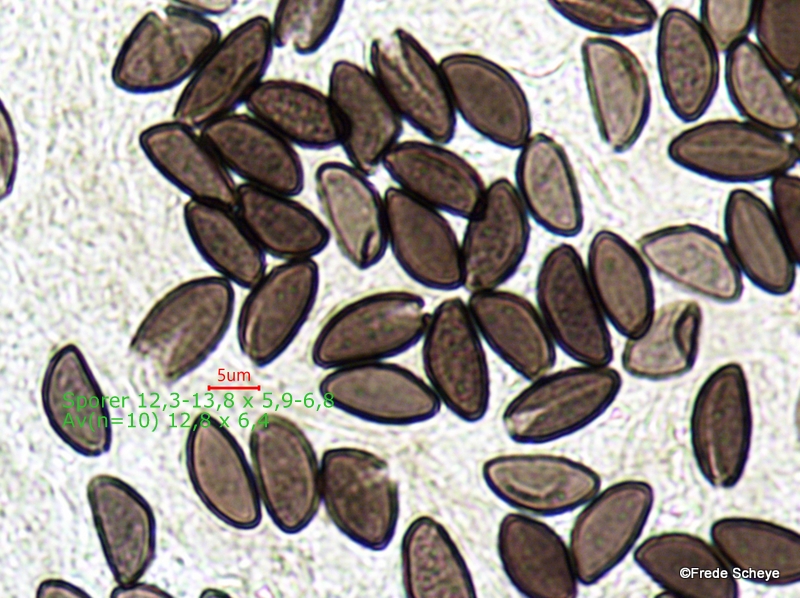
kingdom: Fungi
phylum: Ascomycota
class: Sordariomycetes
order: Xylariales
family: Hypoxylaceae
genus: Hypoxylon
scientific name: Hypoxylon fragiforme
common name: kuljordbær
